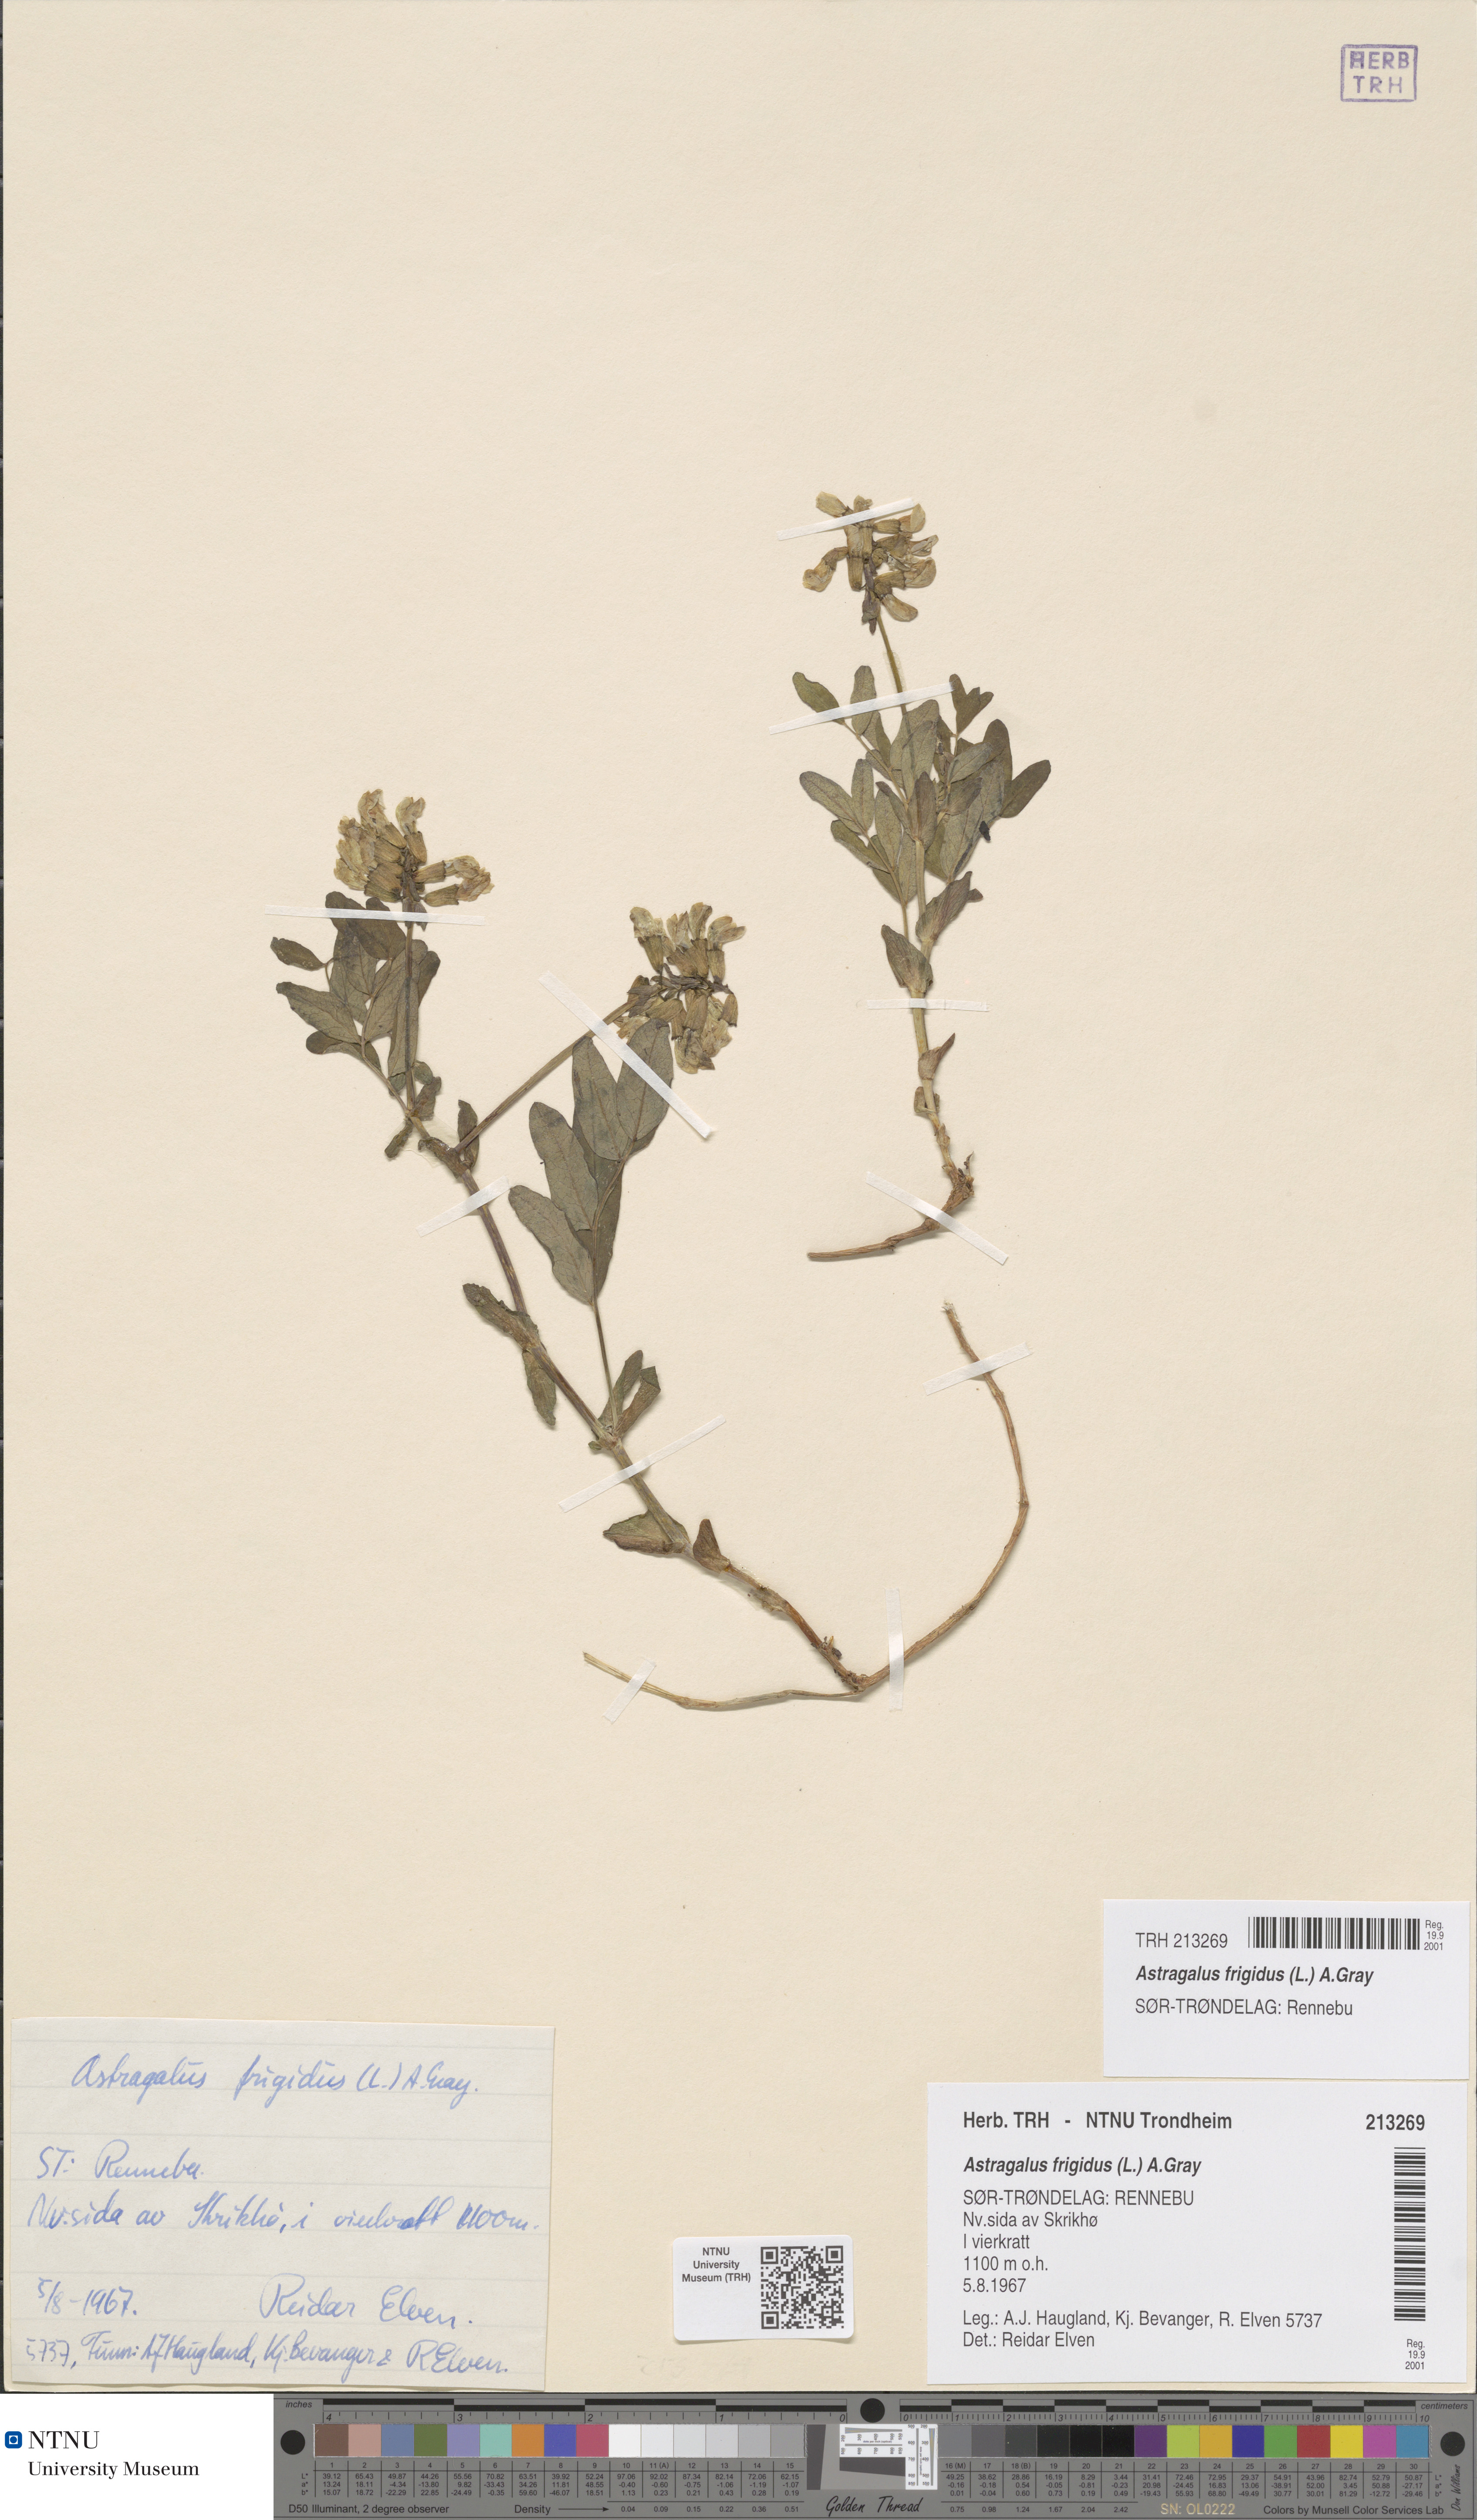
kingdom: Plantae
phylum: Tracheophyta
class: Magnoliopsida
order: Fabales
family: Fabaceae
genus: Astragalus
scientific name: Astragalus frigidus
